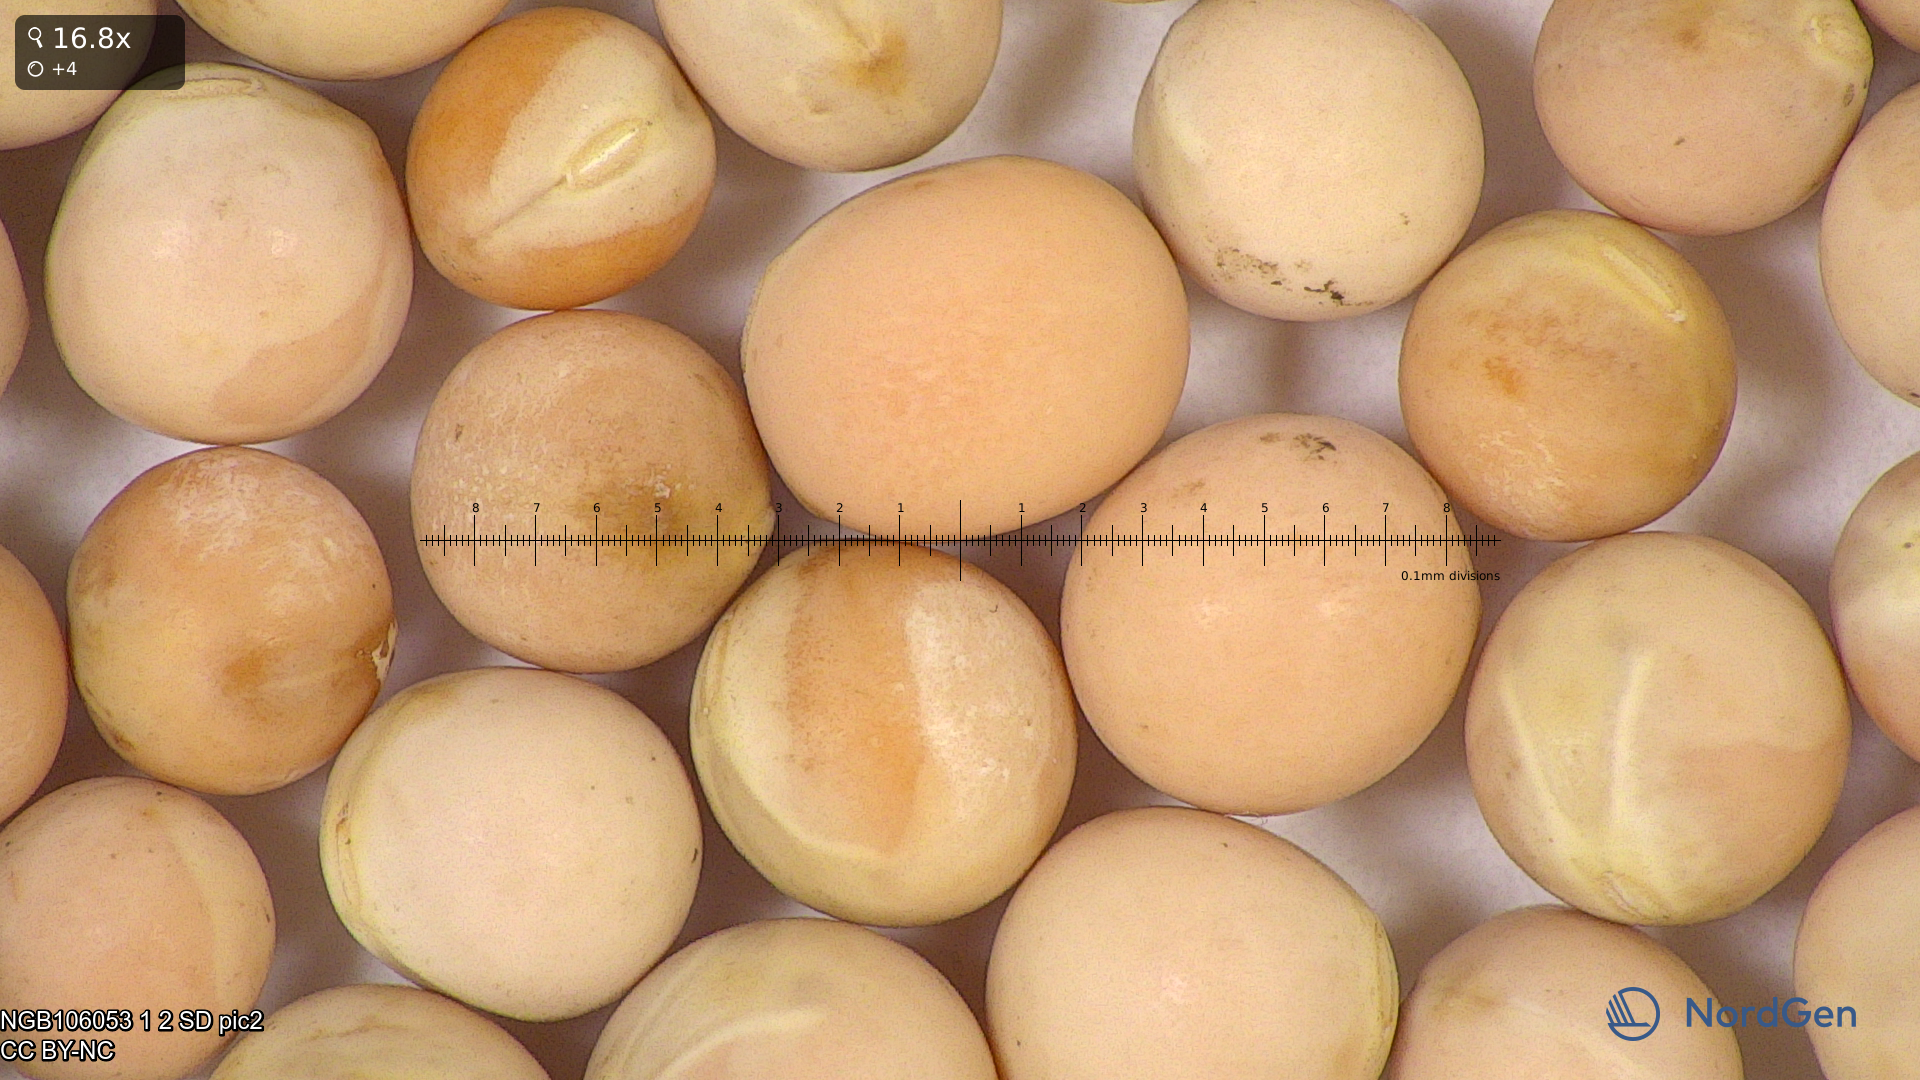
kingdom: Plantae
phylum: Tracheophyta
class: Magnoliopsida
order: Fabales
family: Fabaceae
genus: Lathyrus
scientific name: Lathyrus oleraceus
